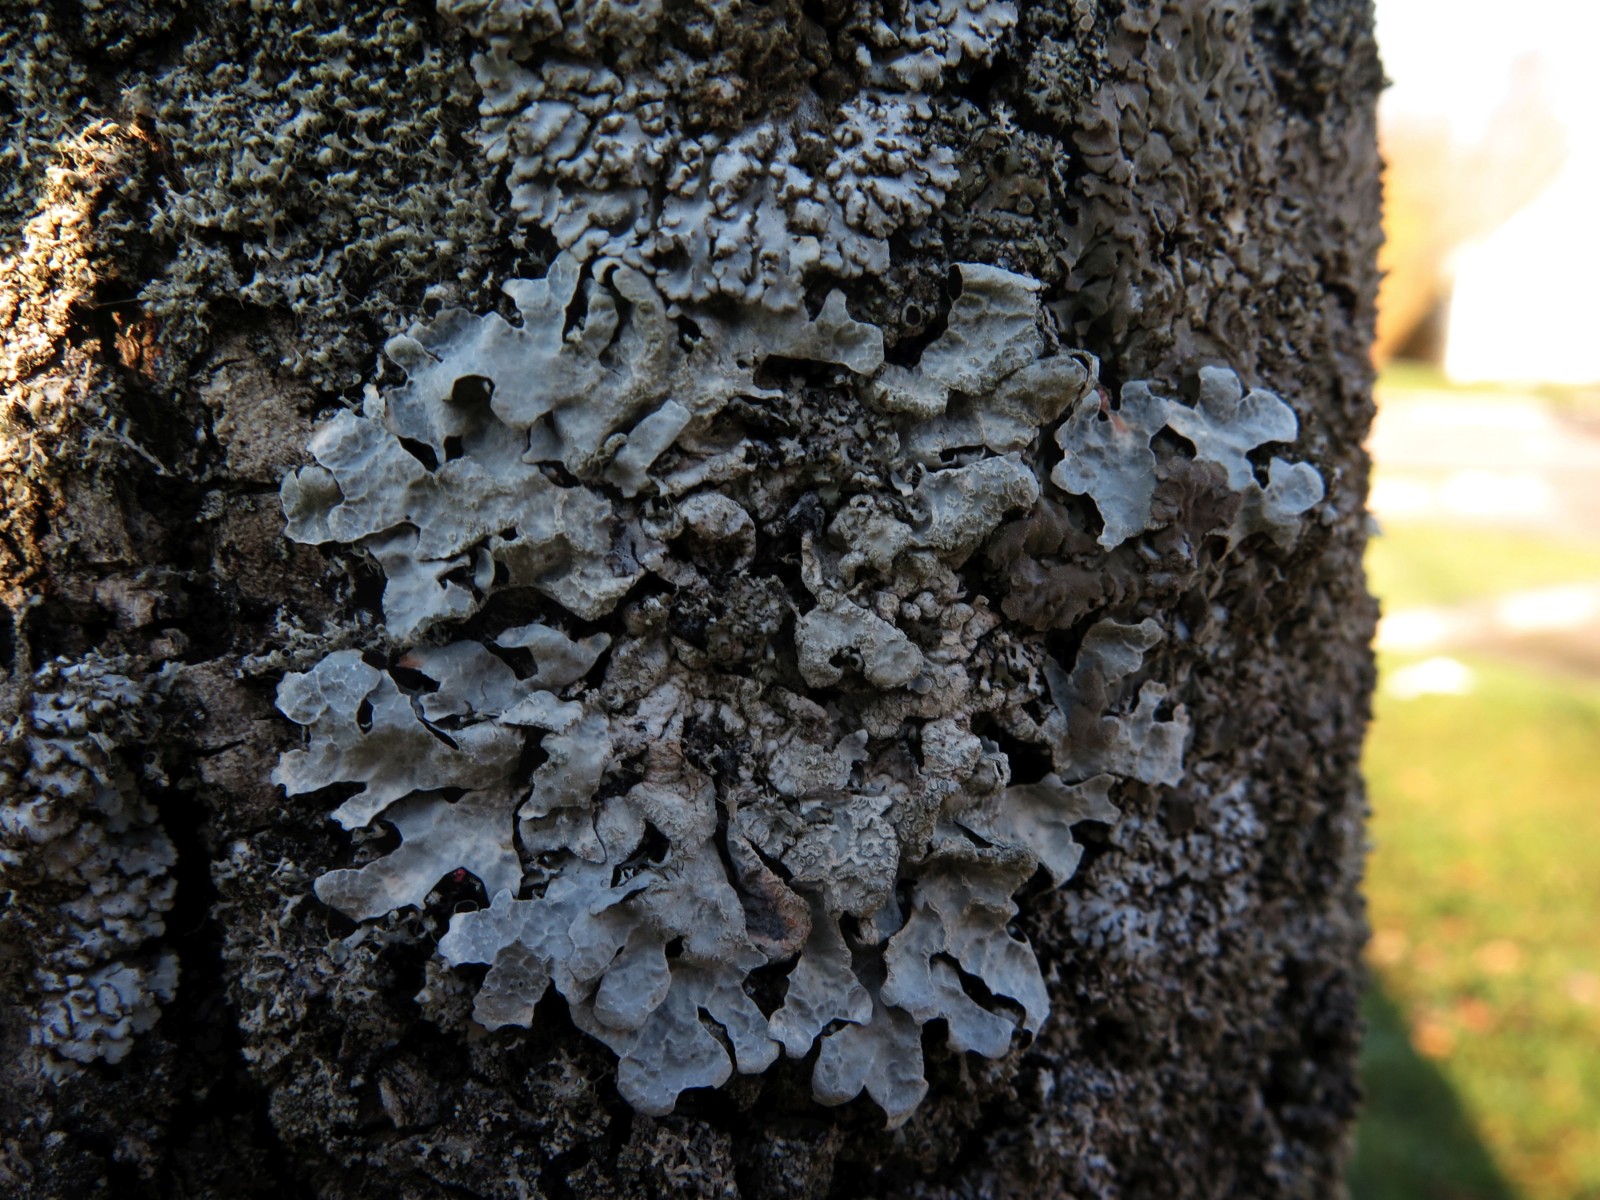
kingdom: Fungi
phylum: Ascomycota
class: Lecanoromycetes
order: Lecanorales
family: Parmeliaceae
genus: Parmelia
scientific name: Parmelia sulcata
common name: rynket skållav
